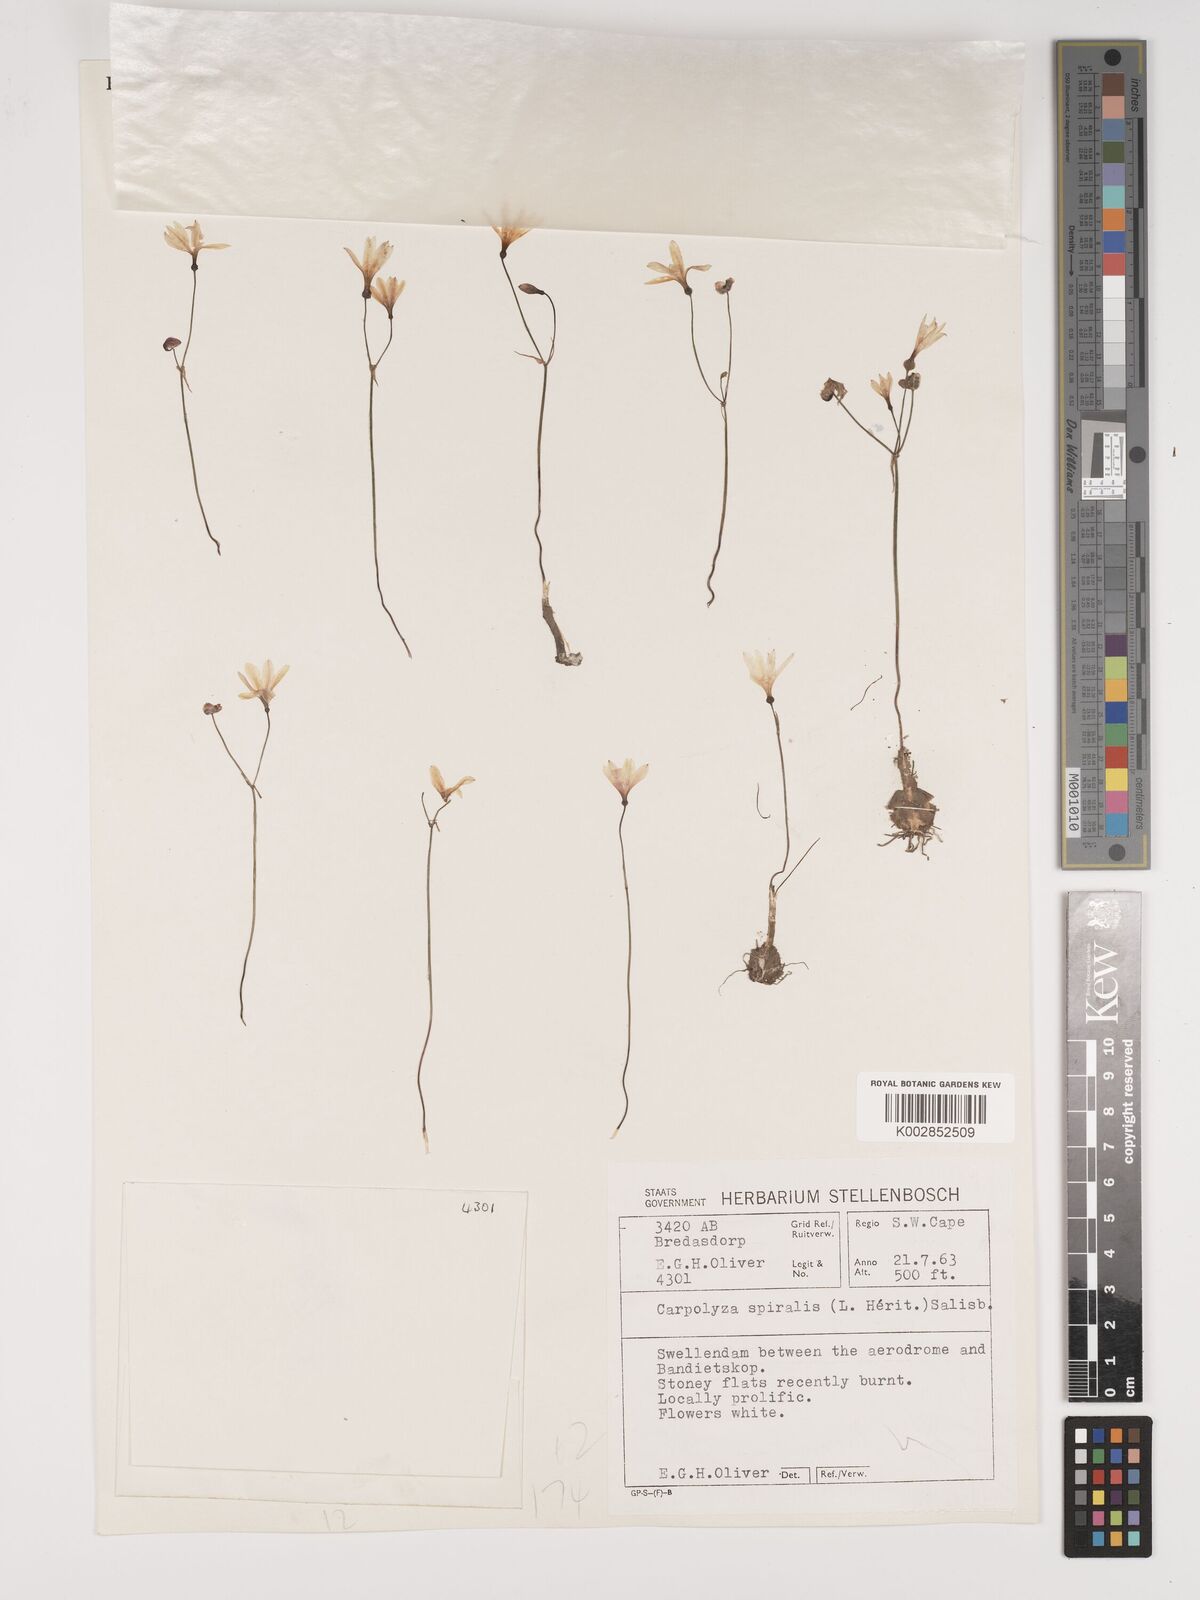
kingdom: Plantae
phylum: Tracheophyta
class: Liliopsida
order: Asparagales
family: Amaryllidaceae
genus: Strumaria
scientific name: Strumaria spiralis
